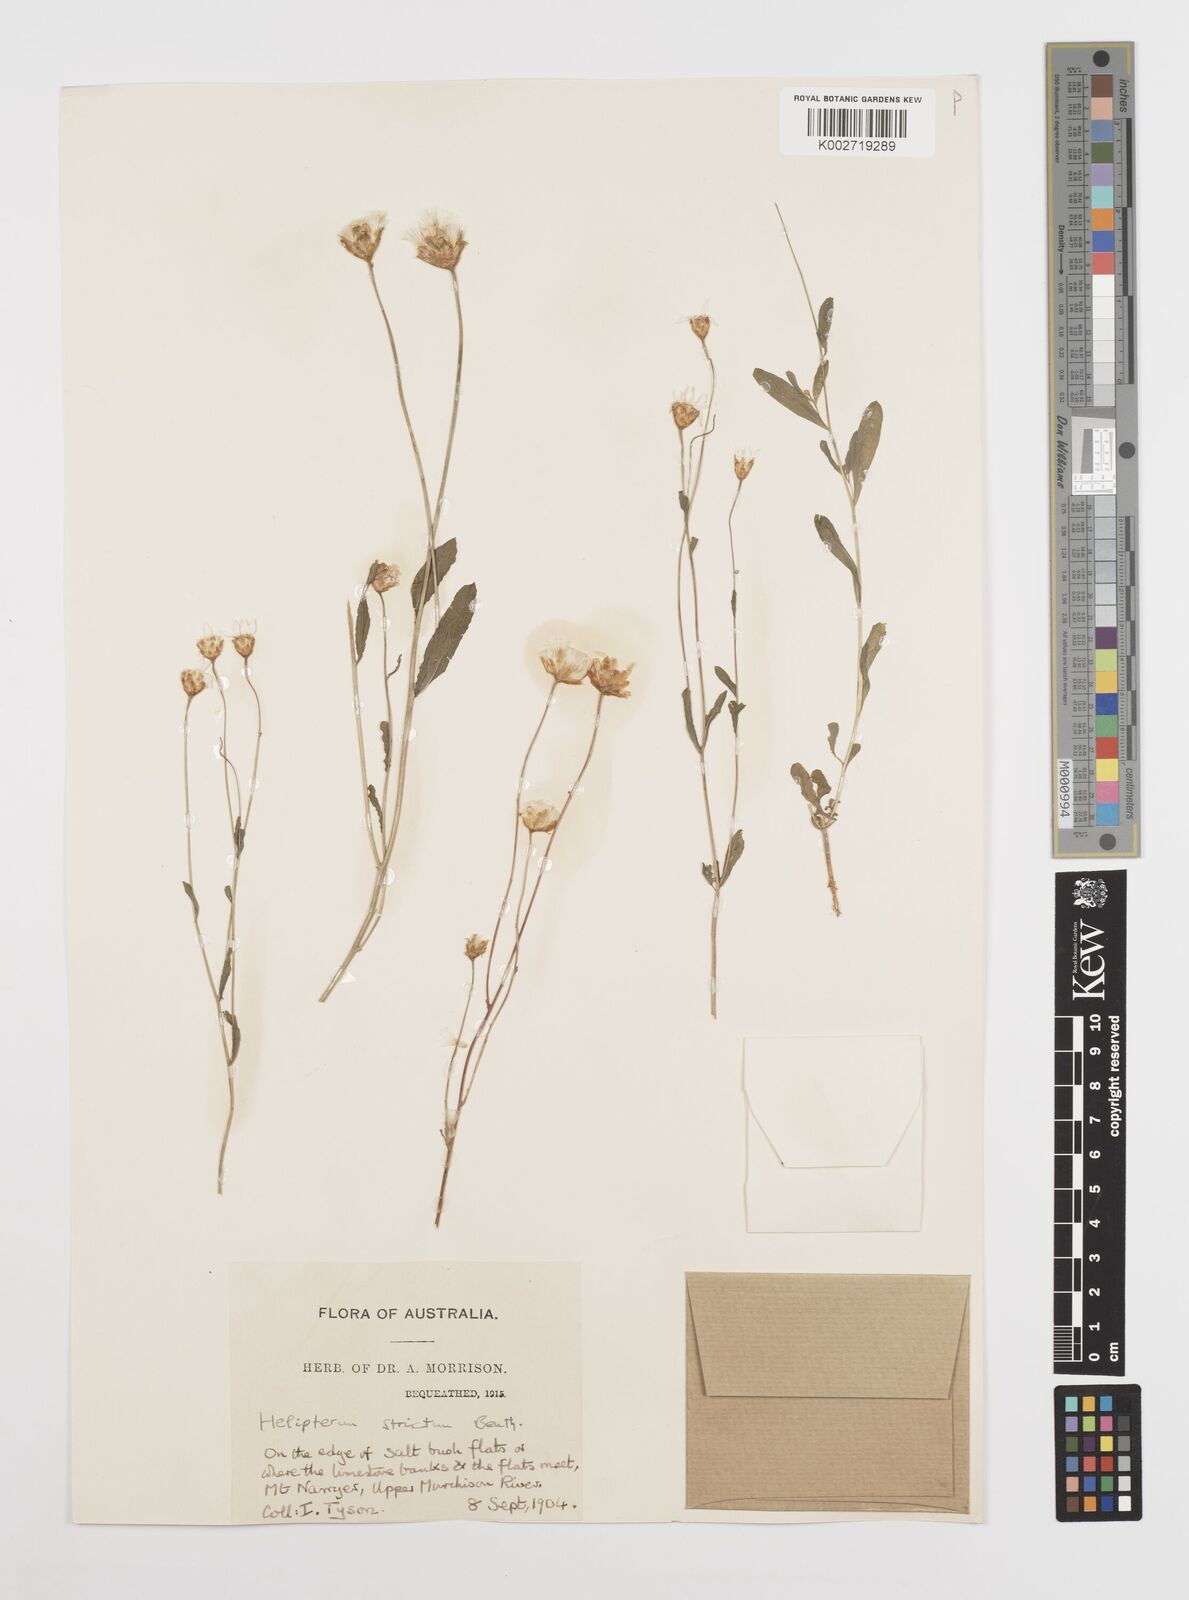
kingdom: Plantae
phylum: Tracheophyta
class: Magnoliopsida
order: Asterales
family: Asteraceae
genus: Rhodanthe
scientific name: Rhodanthe stricta
